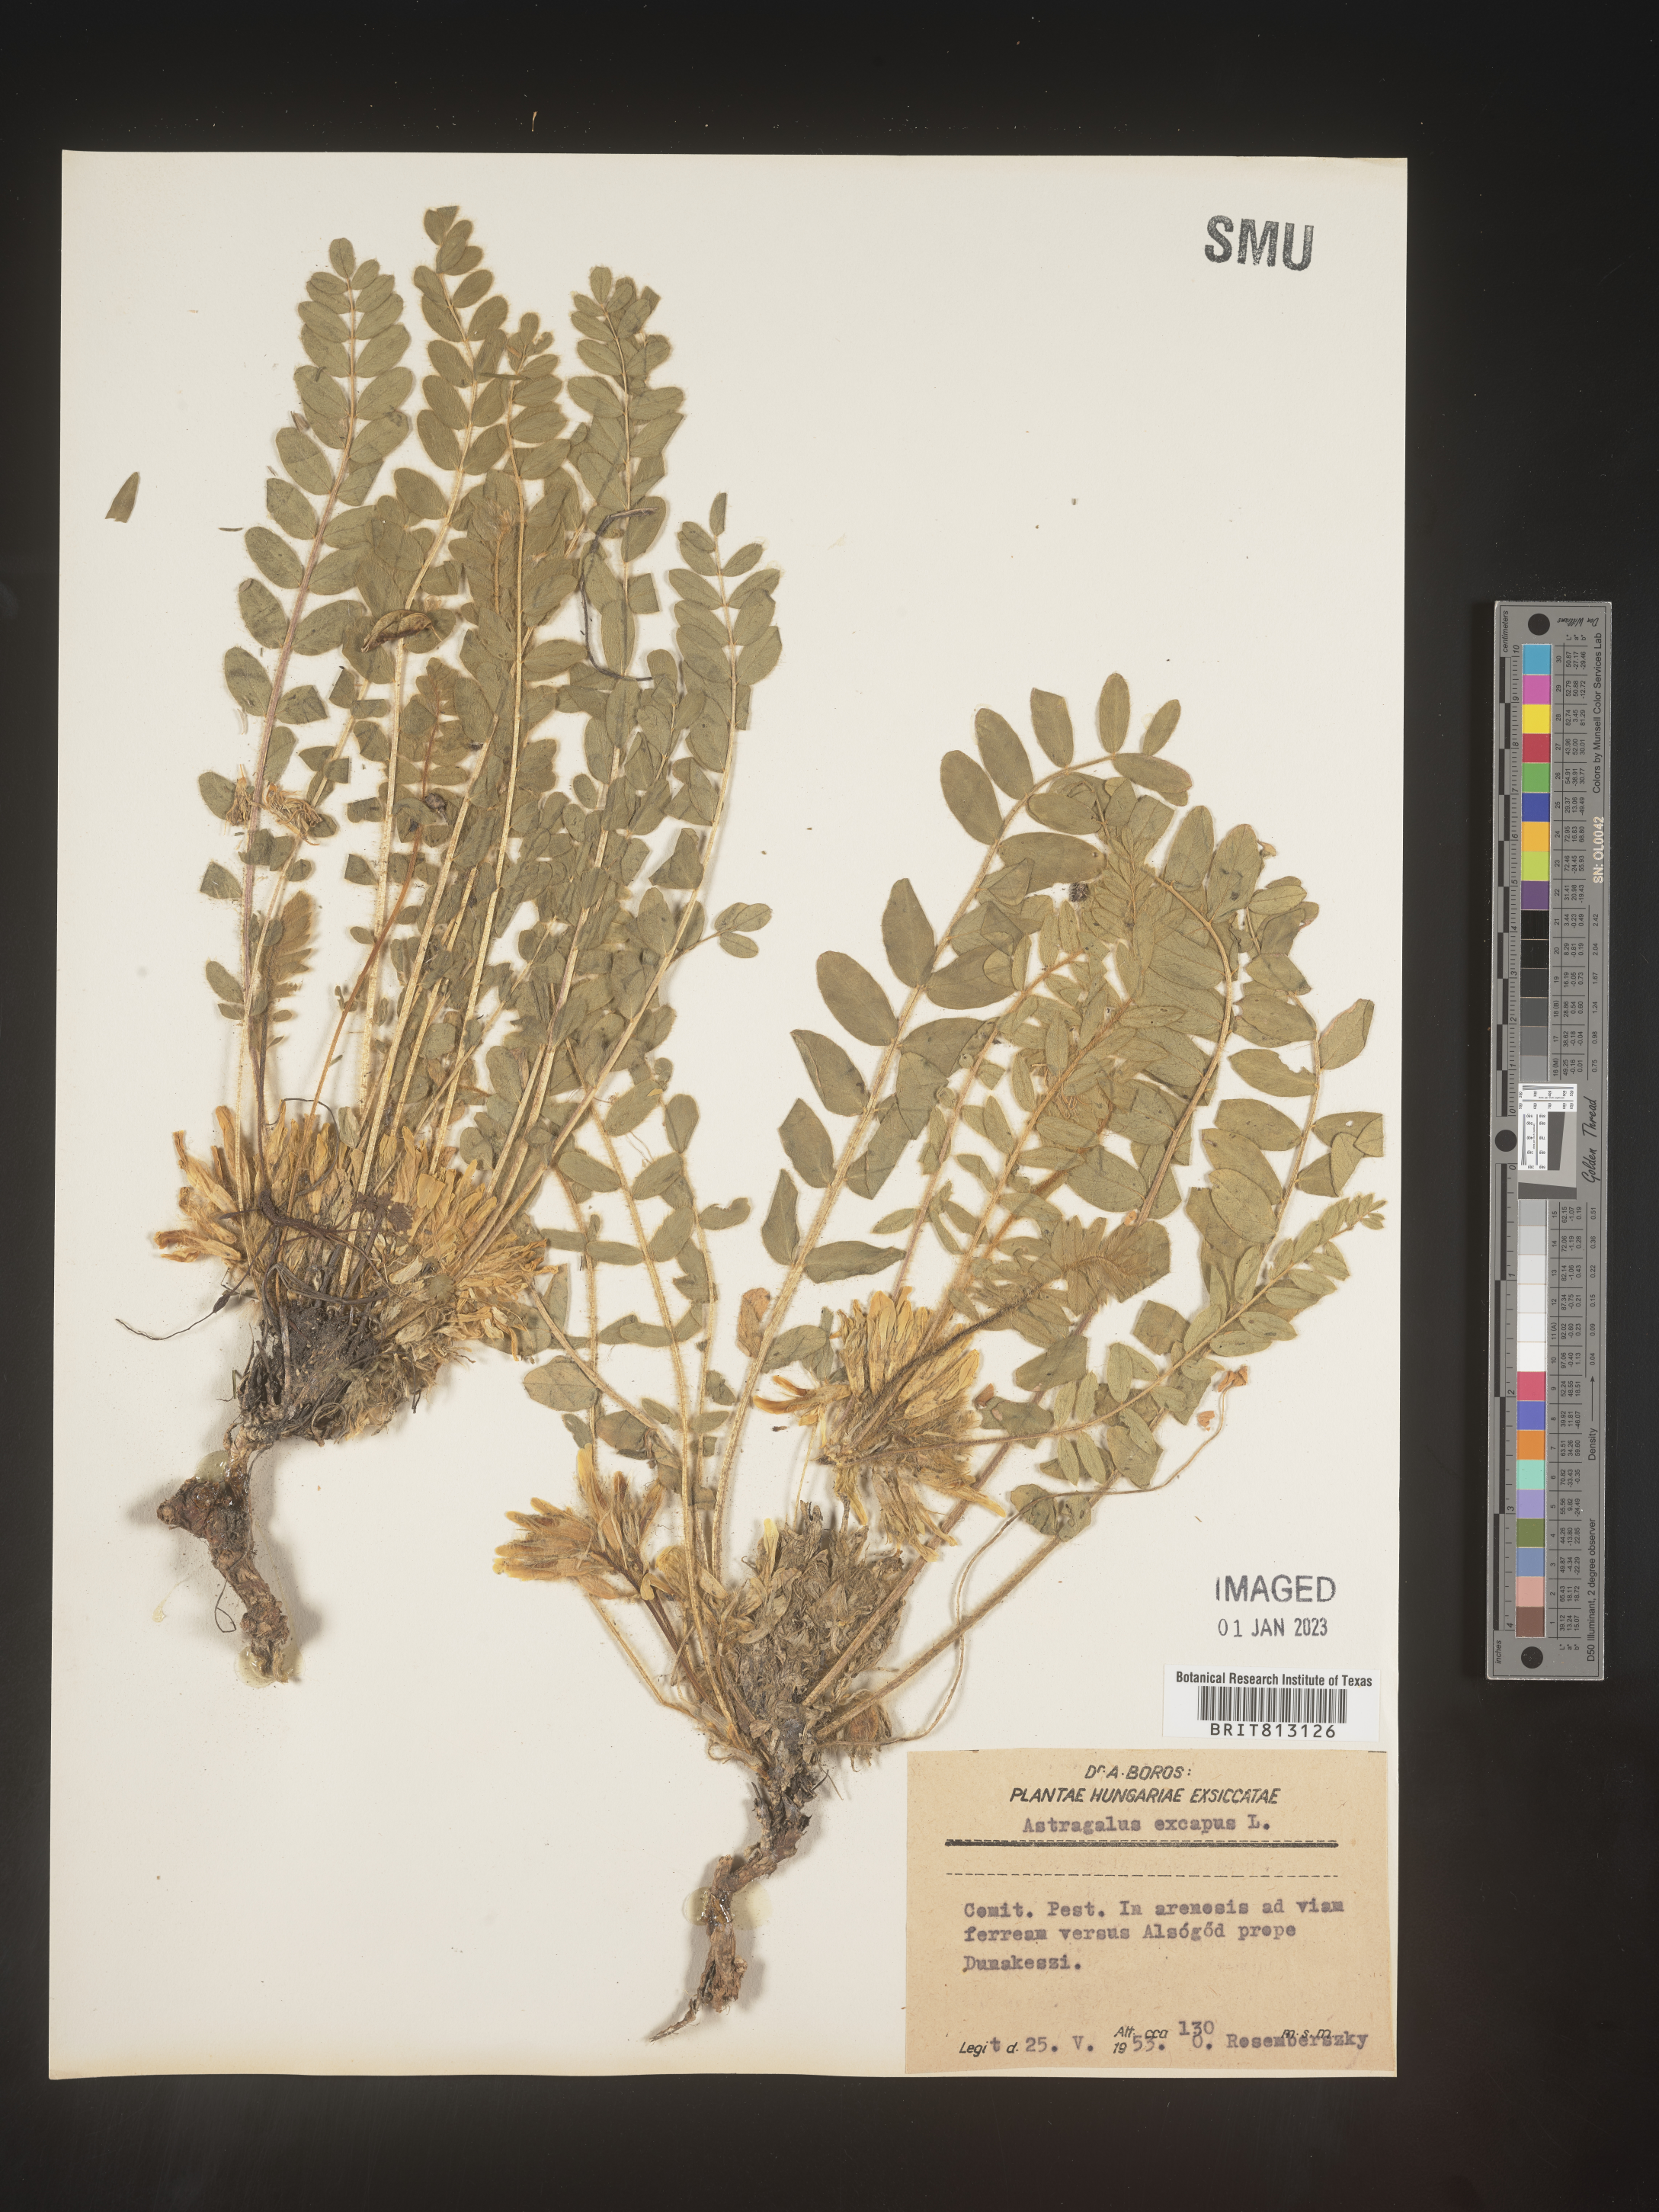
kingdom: Plantae
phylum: Tracheophyta
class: Magnoliopsida
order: Fabales
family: Fabaceae
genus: Astragalus
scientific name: Astragalus
